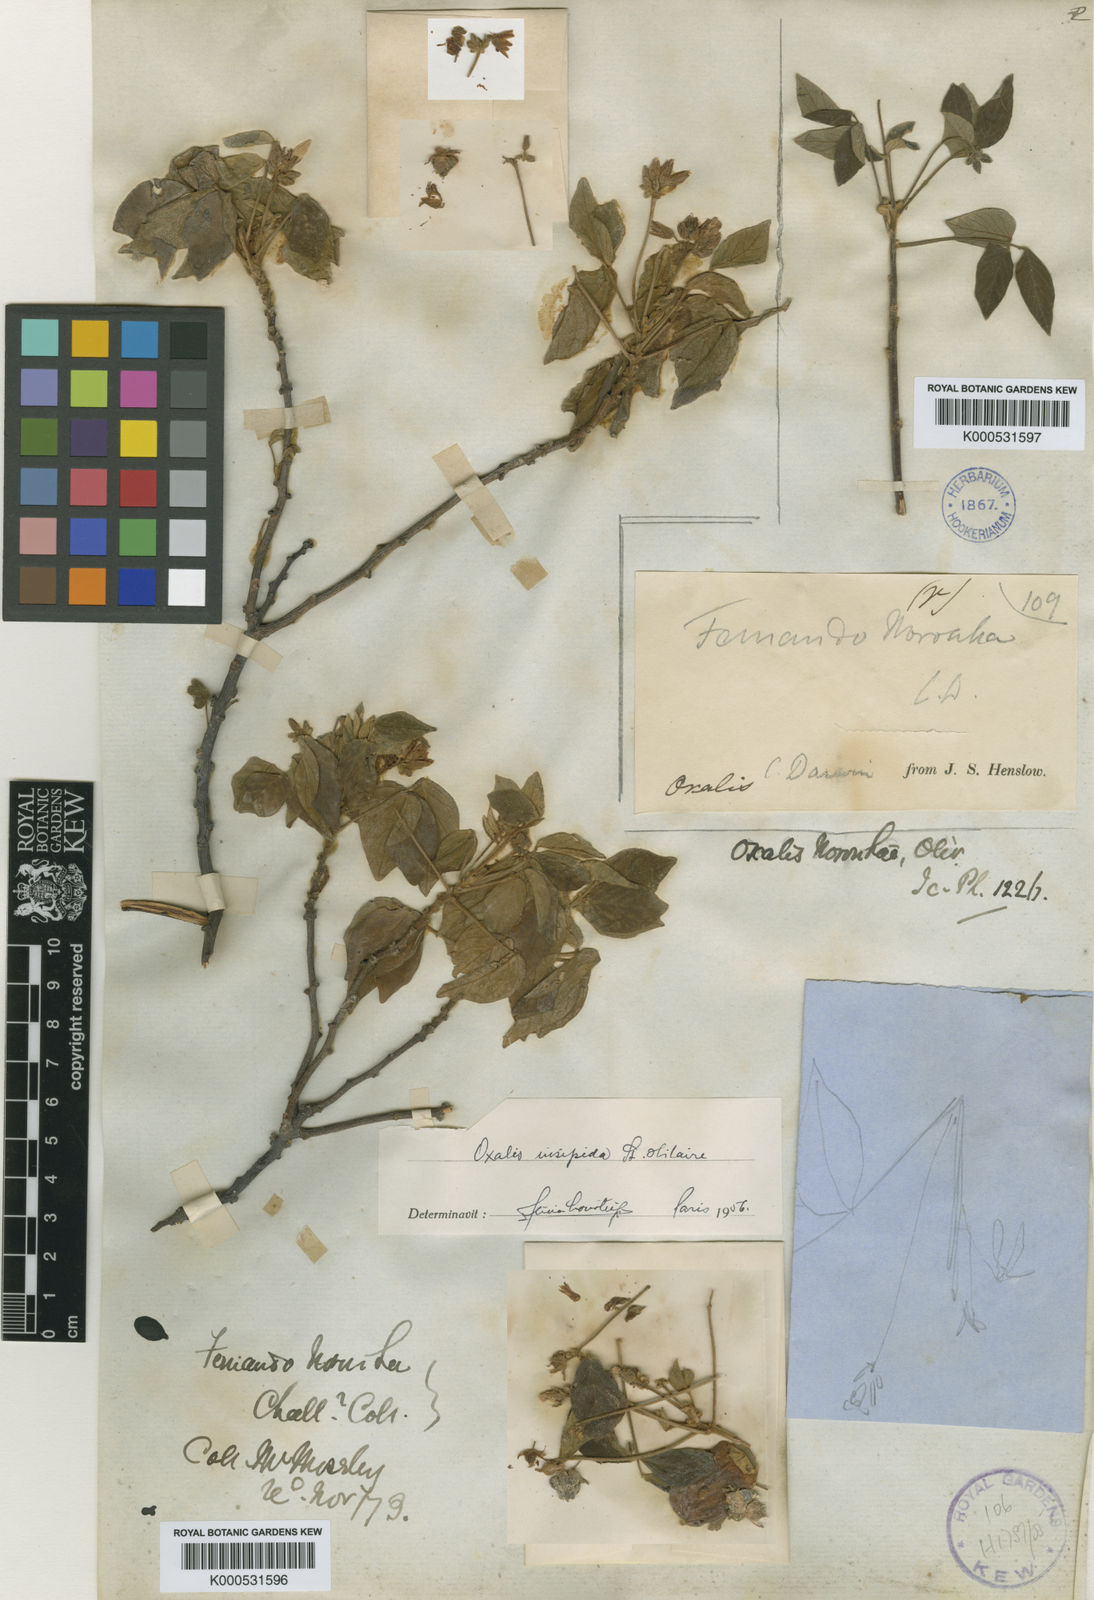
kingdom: Plantae
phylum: Tracheophyta
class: Magnoliopsida
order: Oxalidales
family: Oxalidaceae
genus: Oxalis
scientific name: Oxalis psoraleoides
